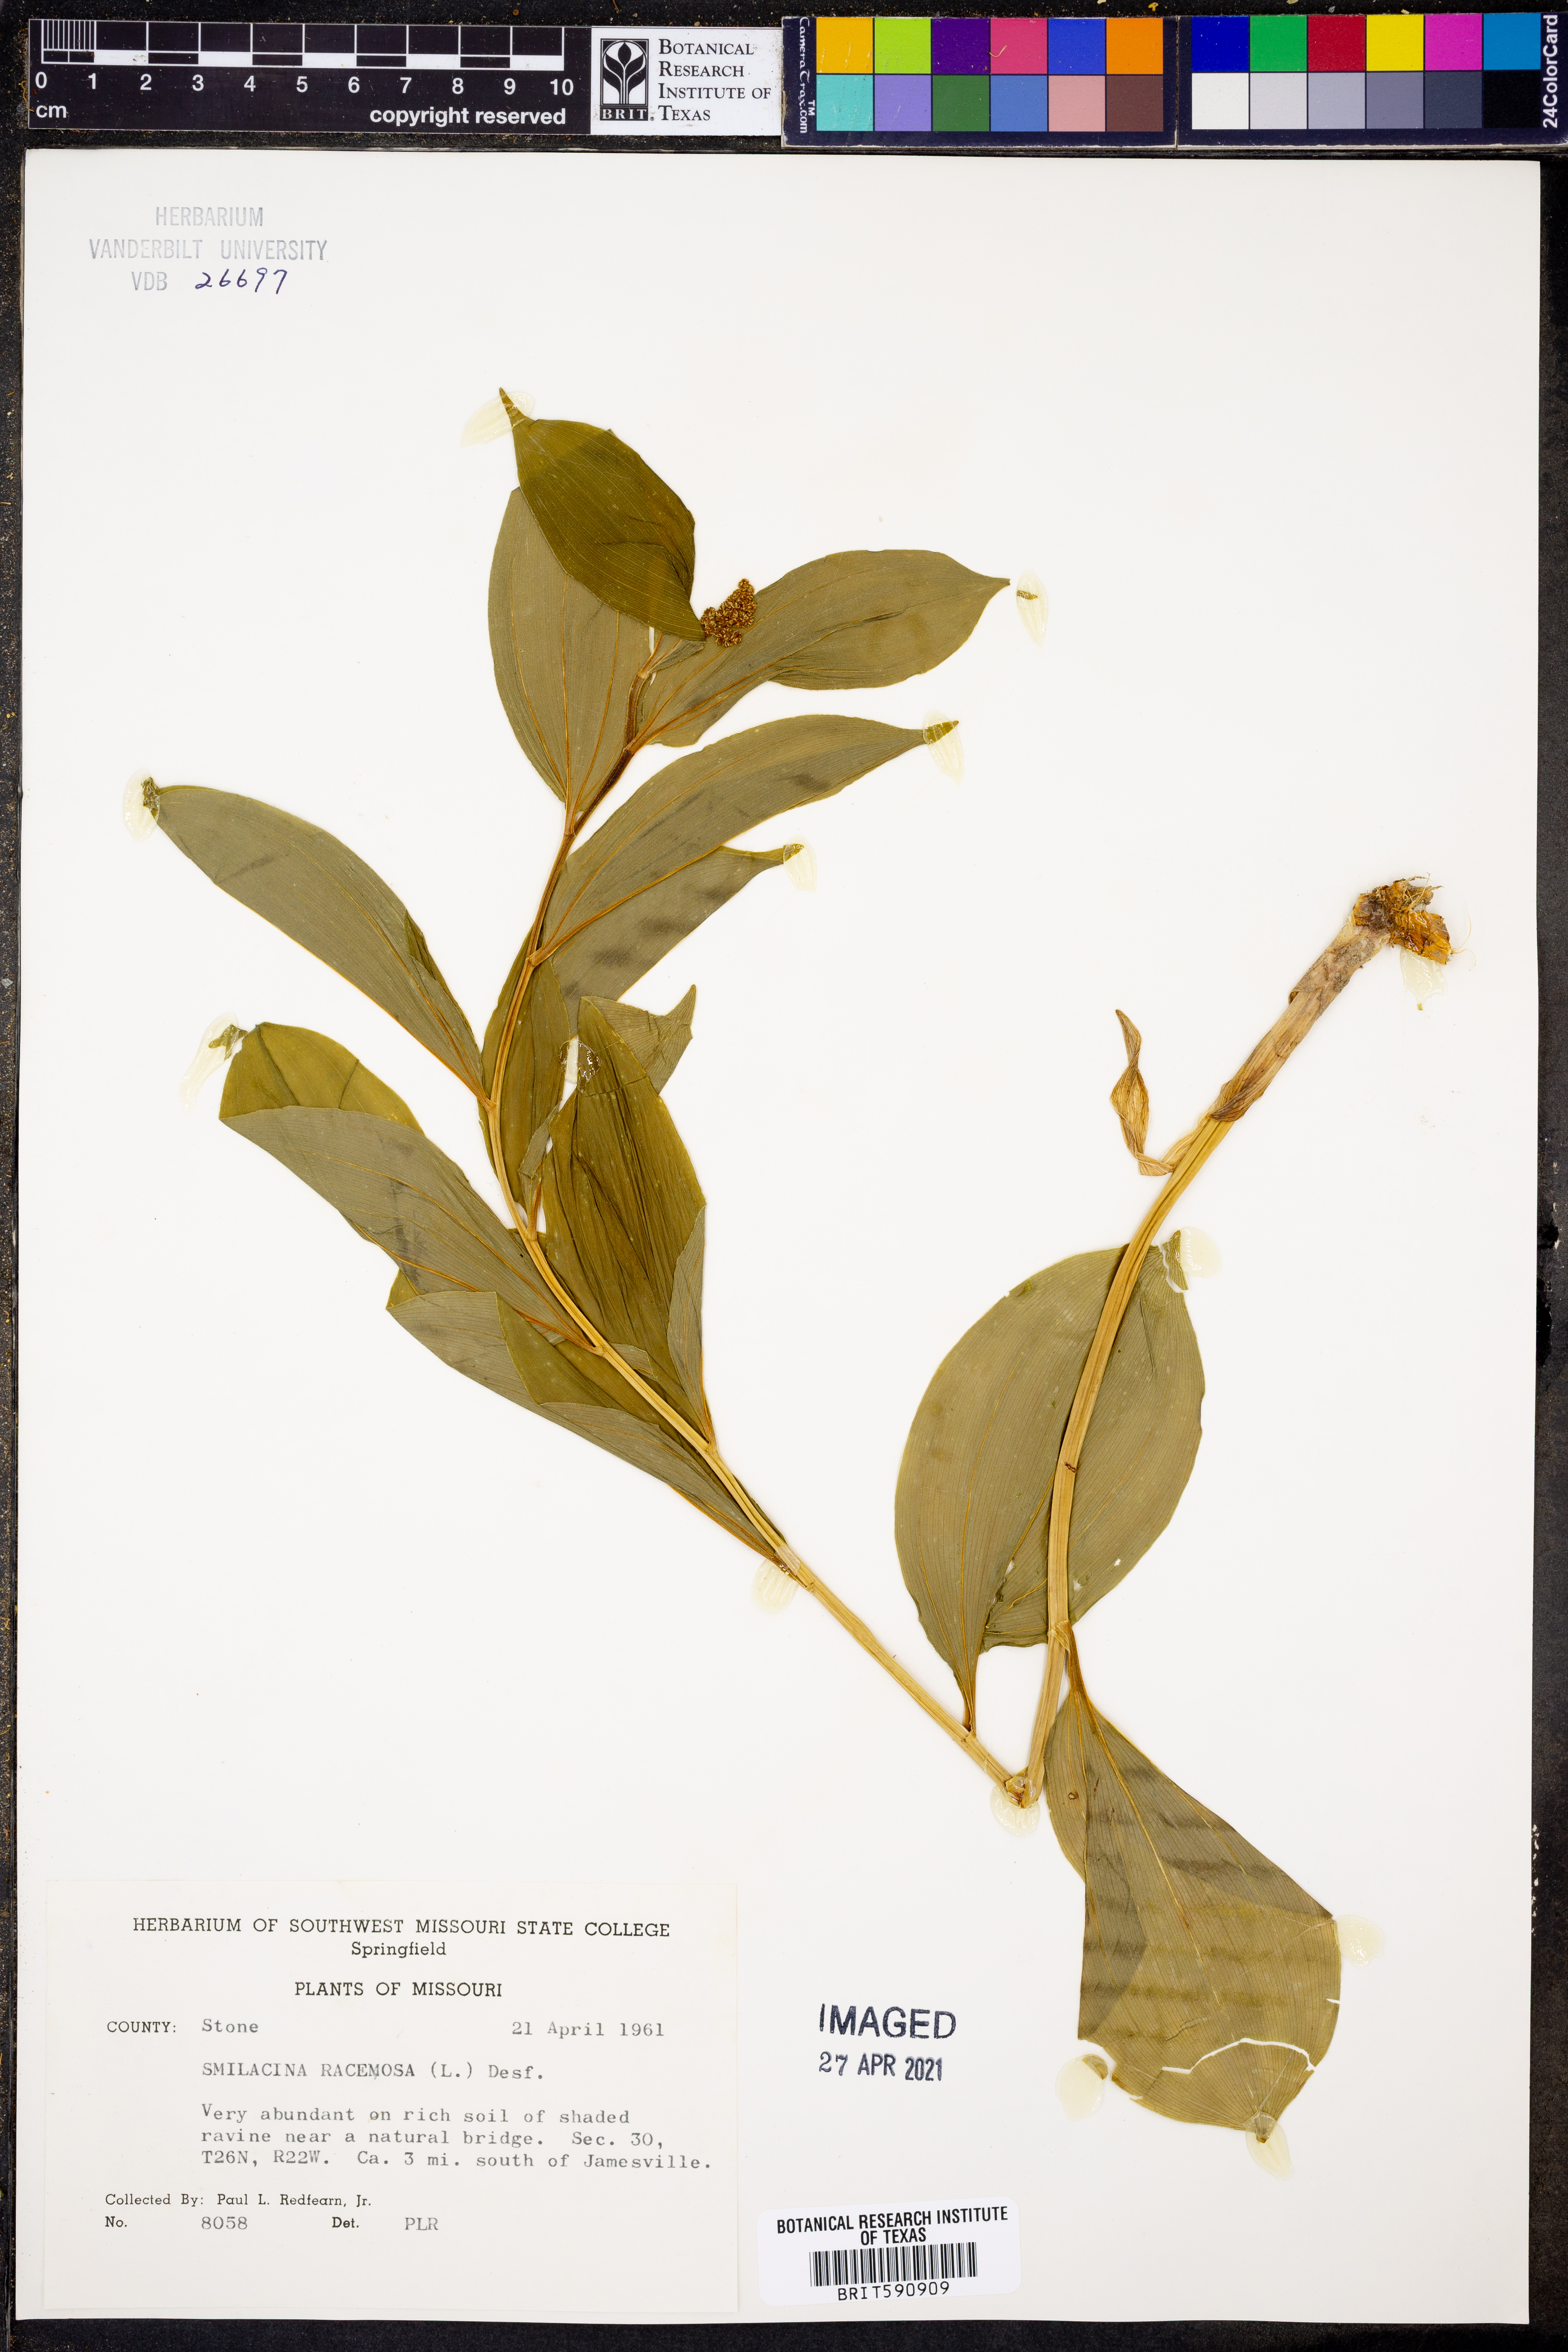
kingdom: Plantae
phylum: Tracheophyta
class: Liliopsida
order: Asparagales
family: Asparagaceae
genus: Maianthemum
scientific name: Maianthemum racemosum
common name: False spikenard
